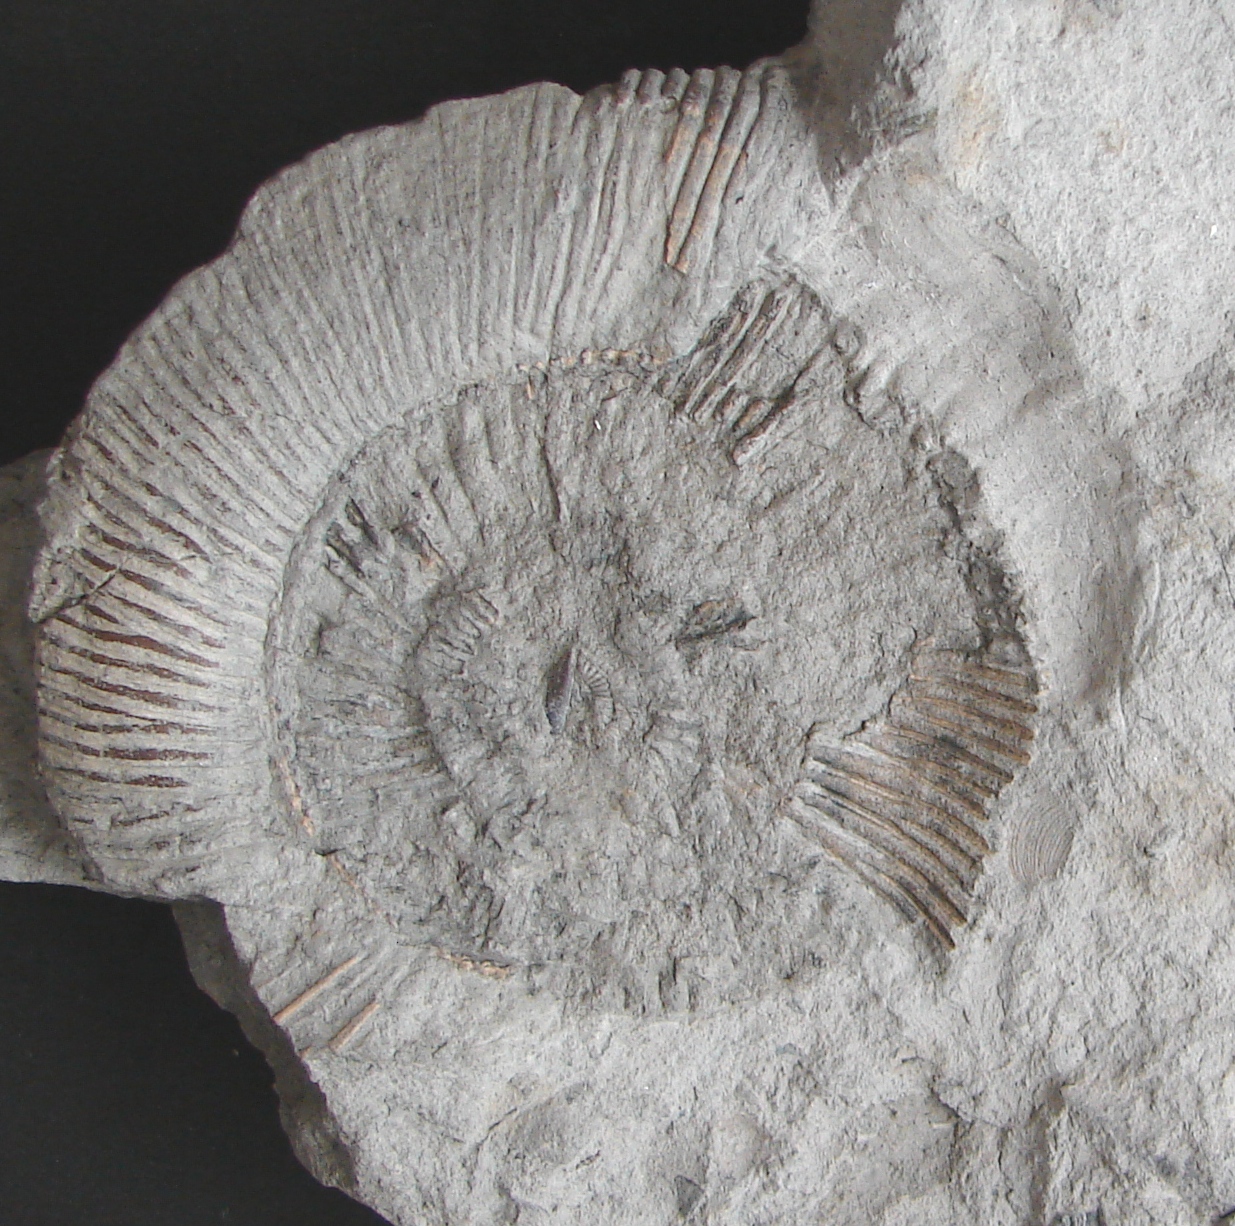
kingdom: Animalia
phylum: Mollusca
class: Cephalopoda
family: Dactylioceratidae
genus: Dactylioceras
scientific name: Dactylioceras
